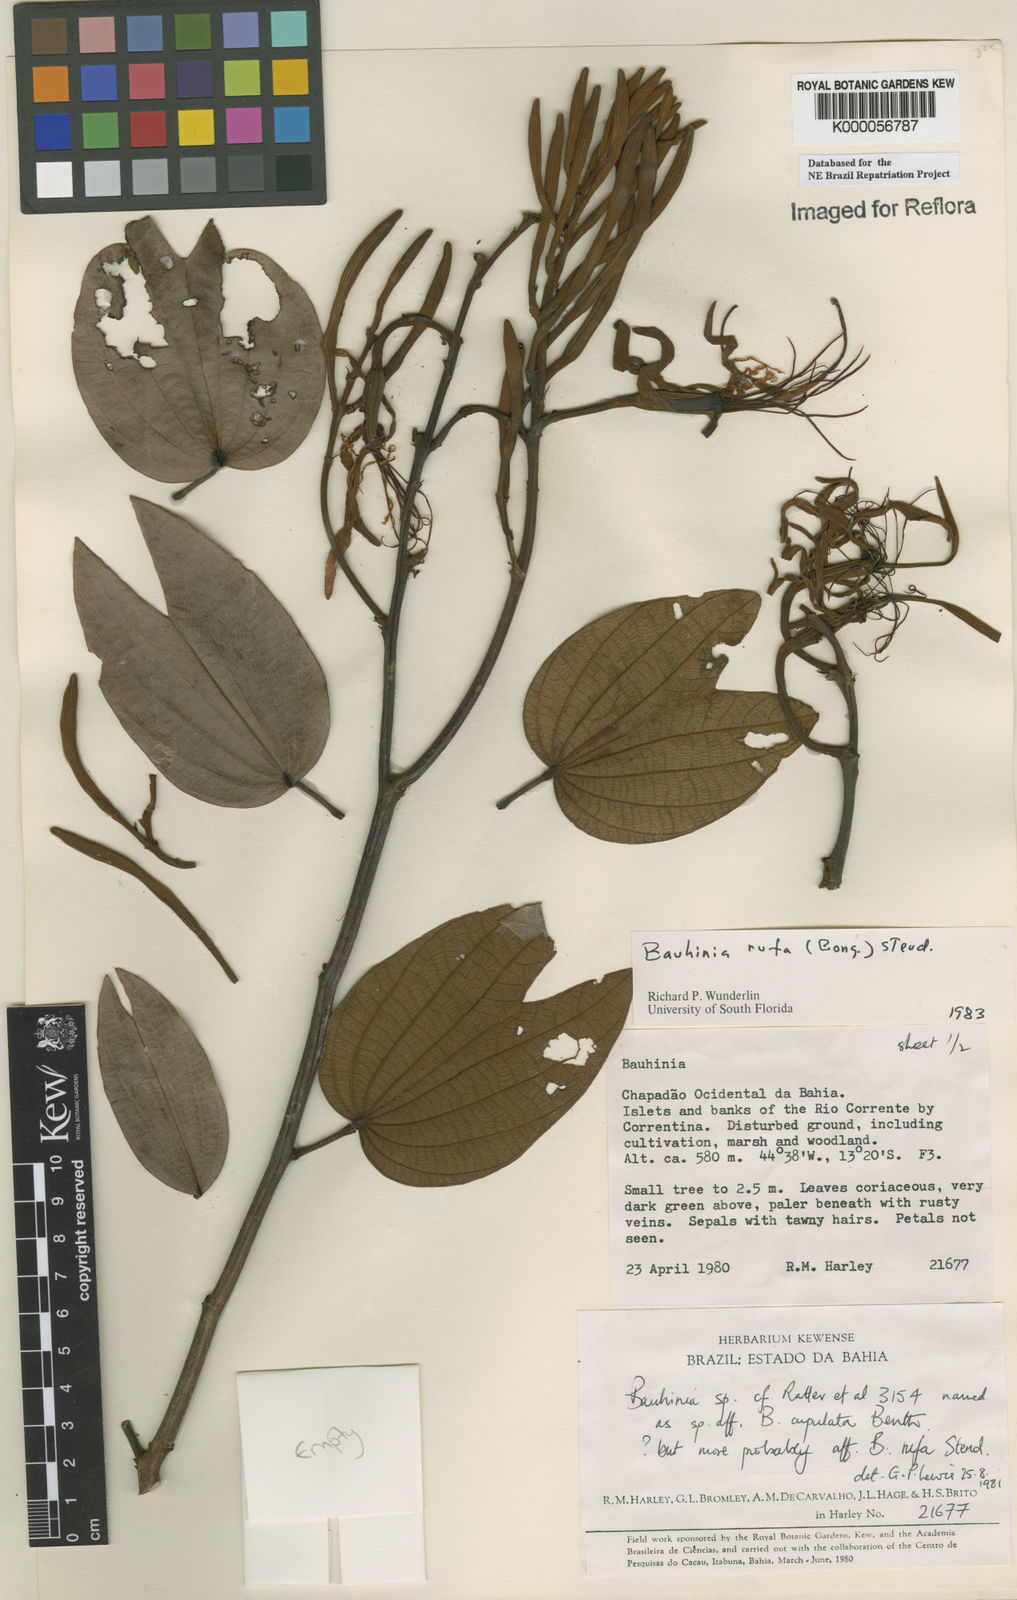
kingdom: Plantae
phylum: Tracheophyta
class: Magnoliopsida
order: Fabales
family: Fabaceae
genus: Bauhinia
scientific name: Bauhinia rufa
